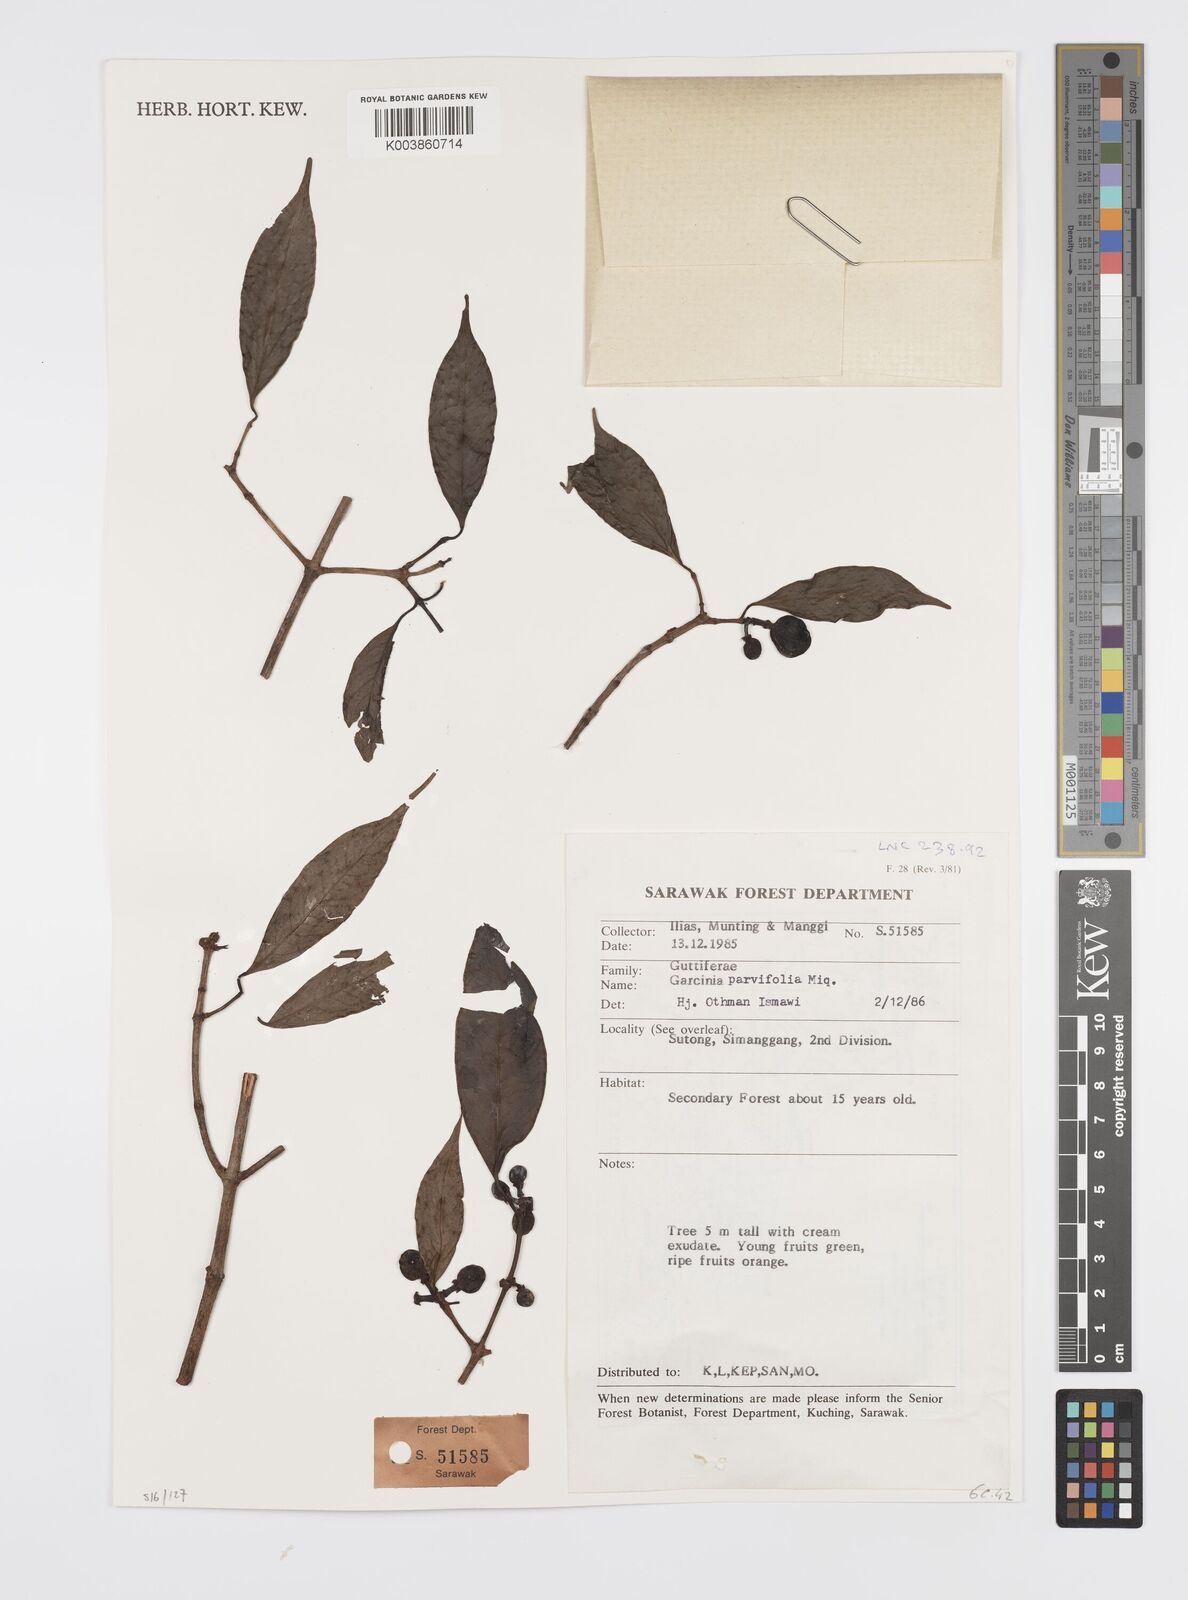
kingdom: Plantae
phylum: Tracheophyta
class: Magnoliopsida
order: Malpighiales
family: Clusiaceae
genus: Garcinia
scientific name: Garcinia parvifolia
